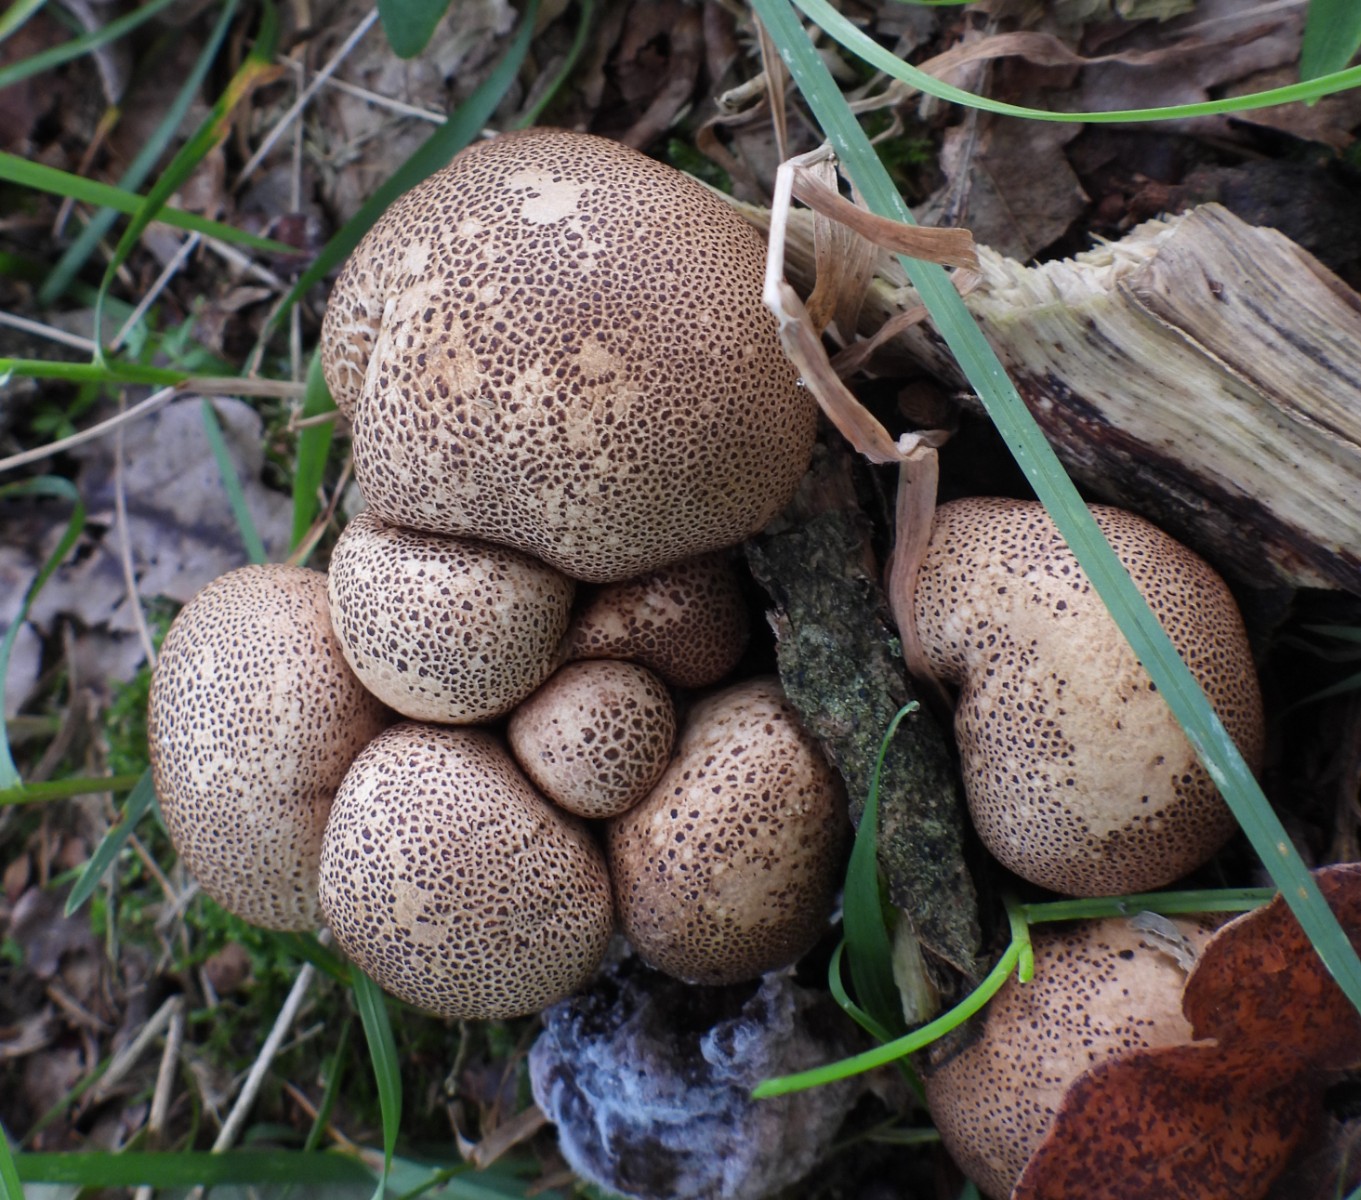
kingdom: Fungi
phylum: Basidiomycota
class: Agaricomycetes
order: Boletales
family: Sclerodermataceae
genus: Scleroderma
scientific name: Scleroderma areolatum
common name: plettet bruskbold
